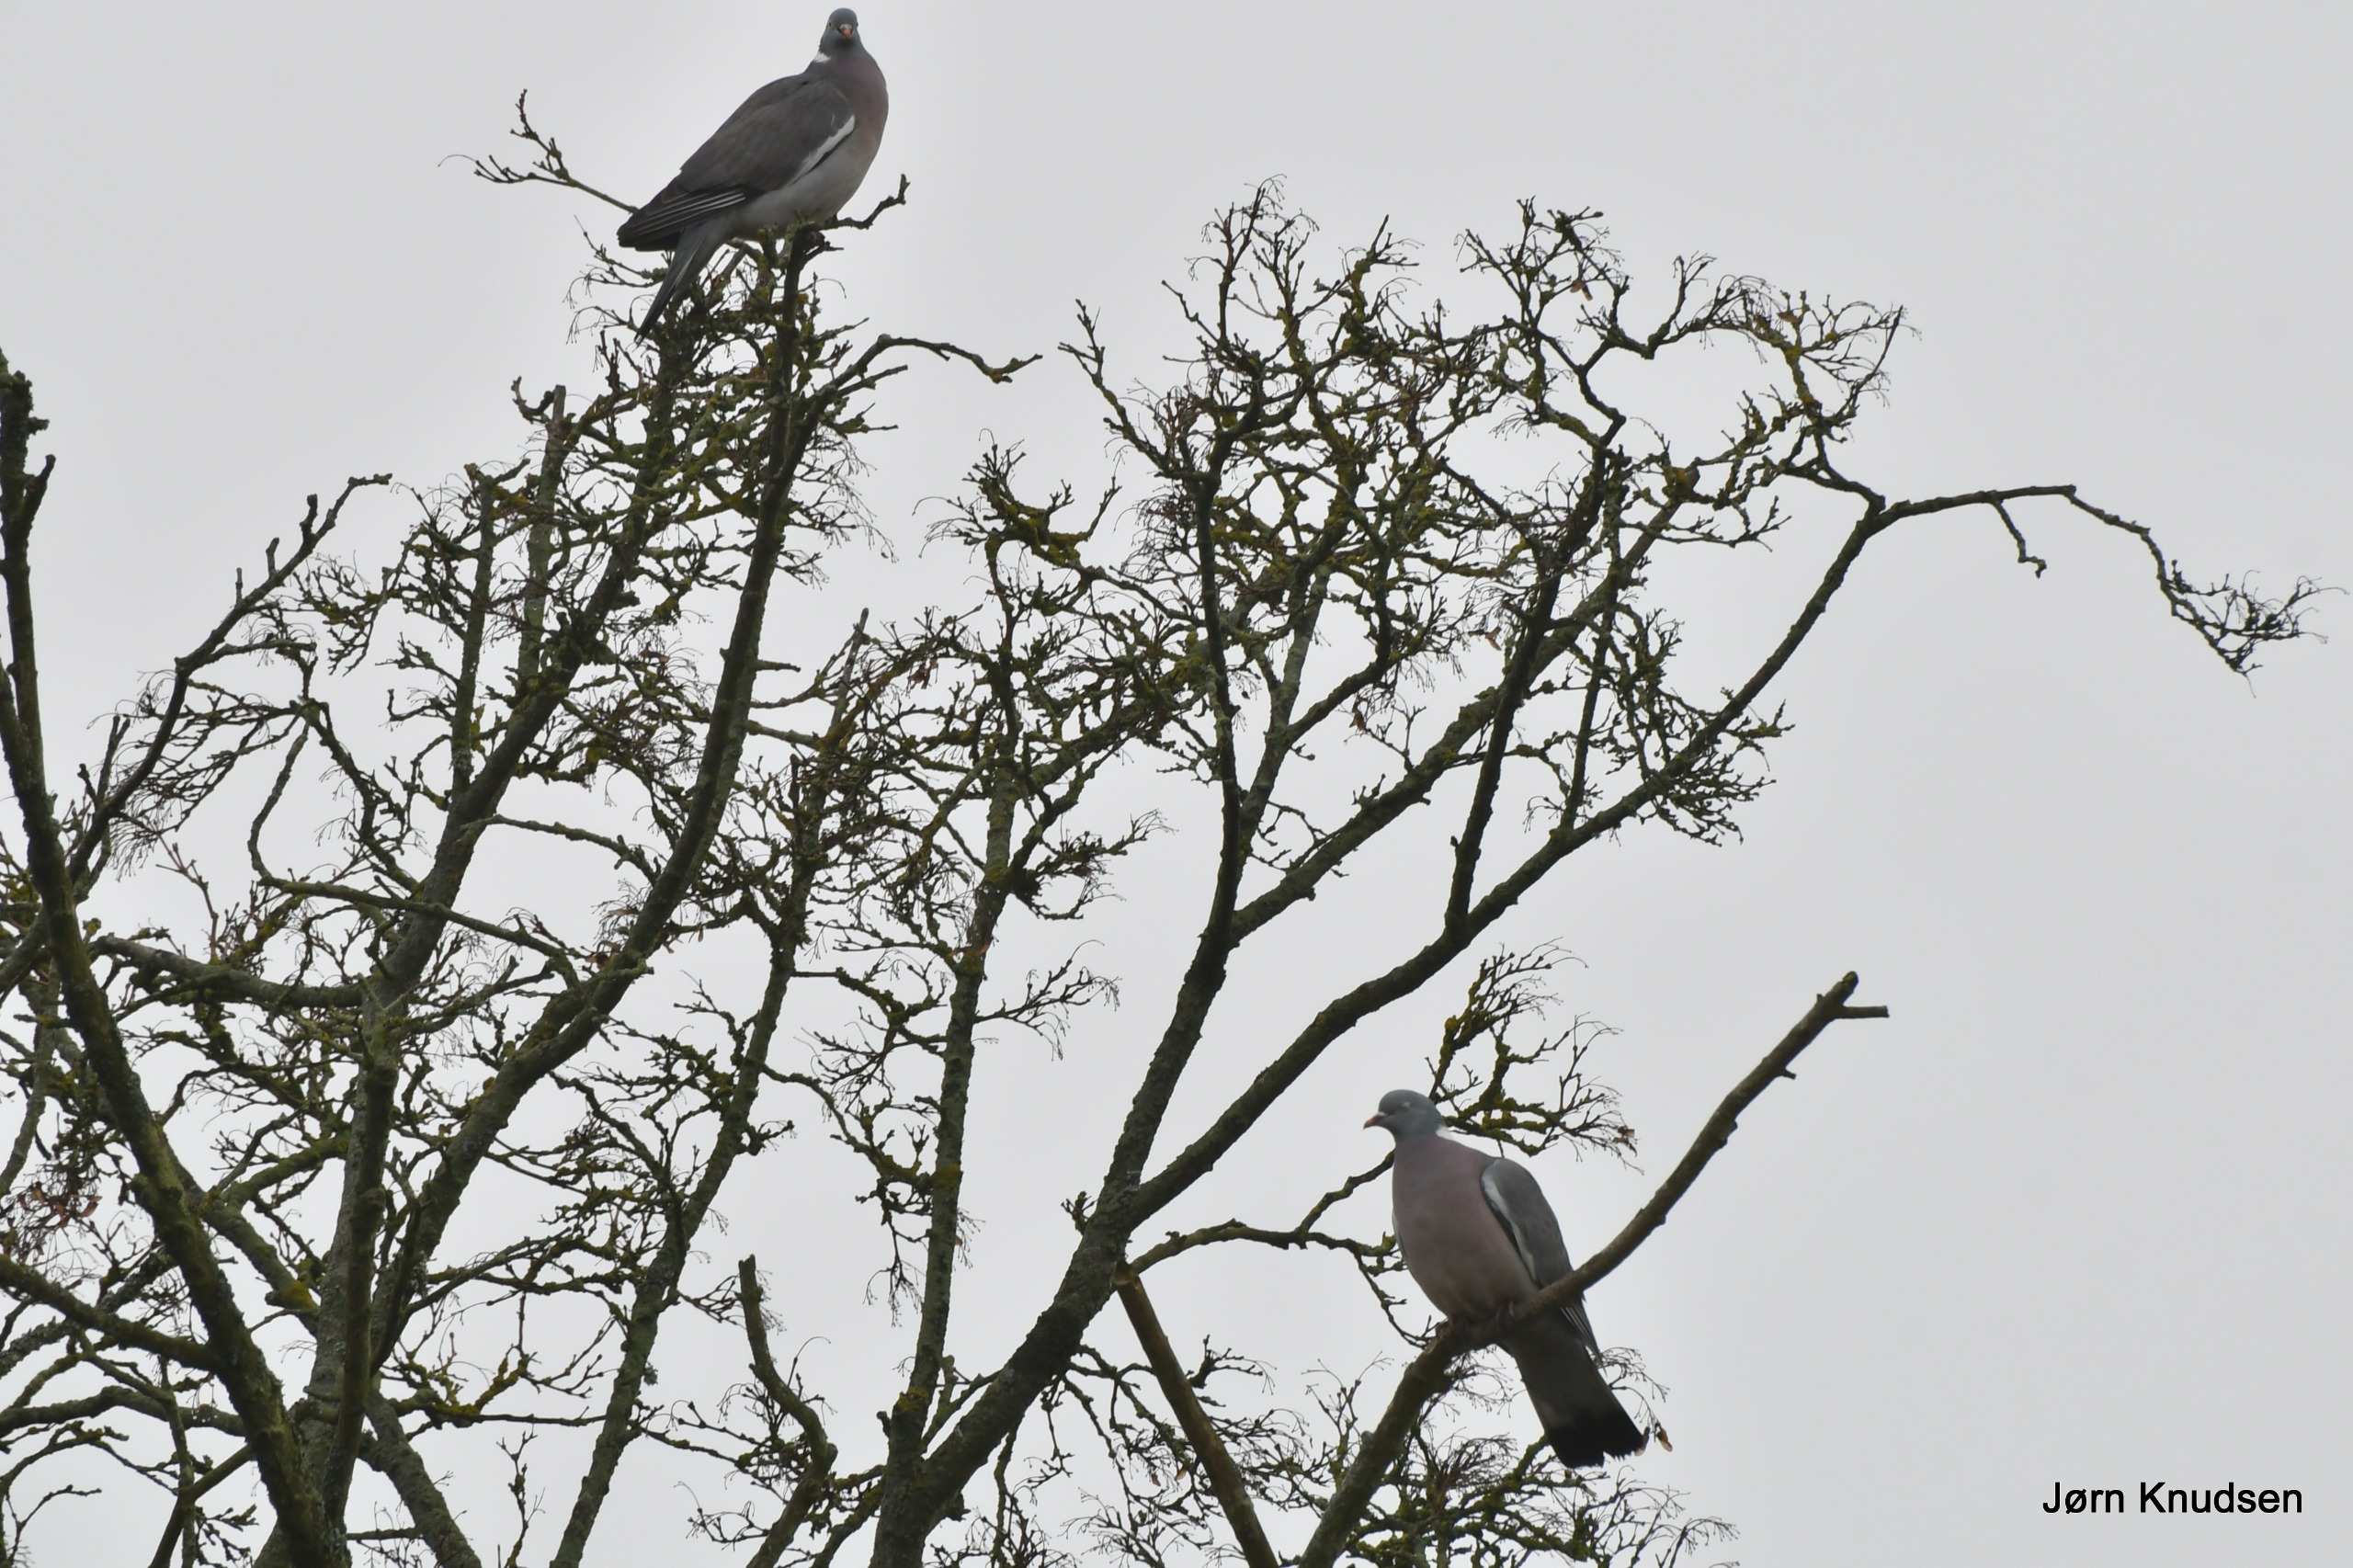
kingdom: Animalia
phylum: Chordata
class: Aves
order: Columbiformes
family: Columbidae
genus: Columba
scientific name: Columba palumbus
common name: Ringdue
